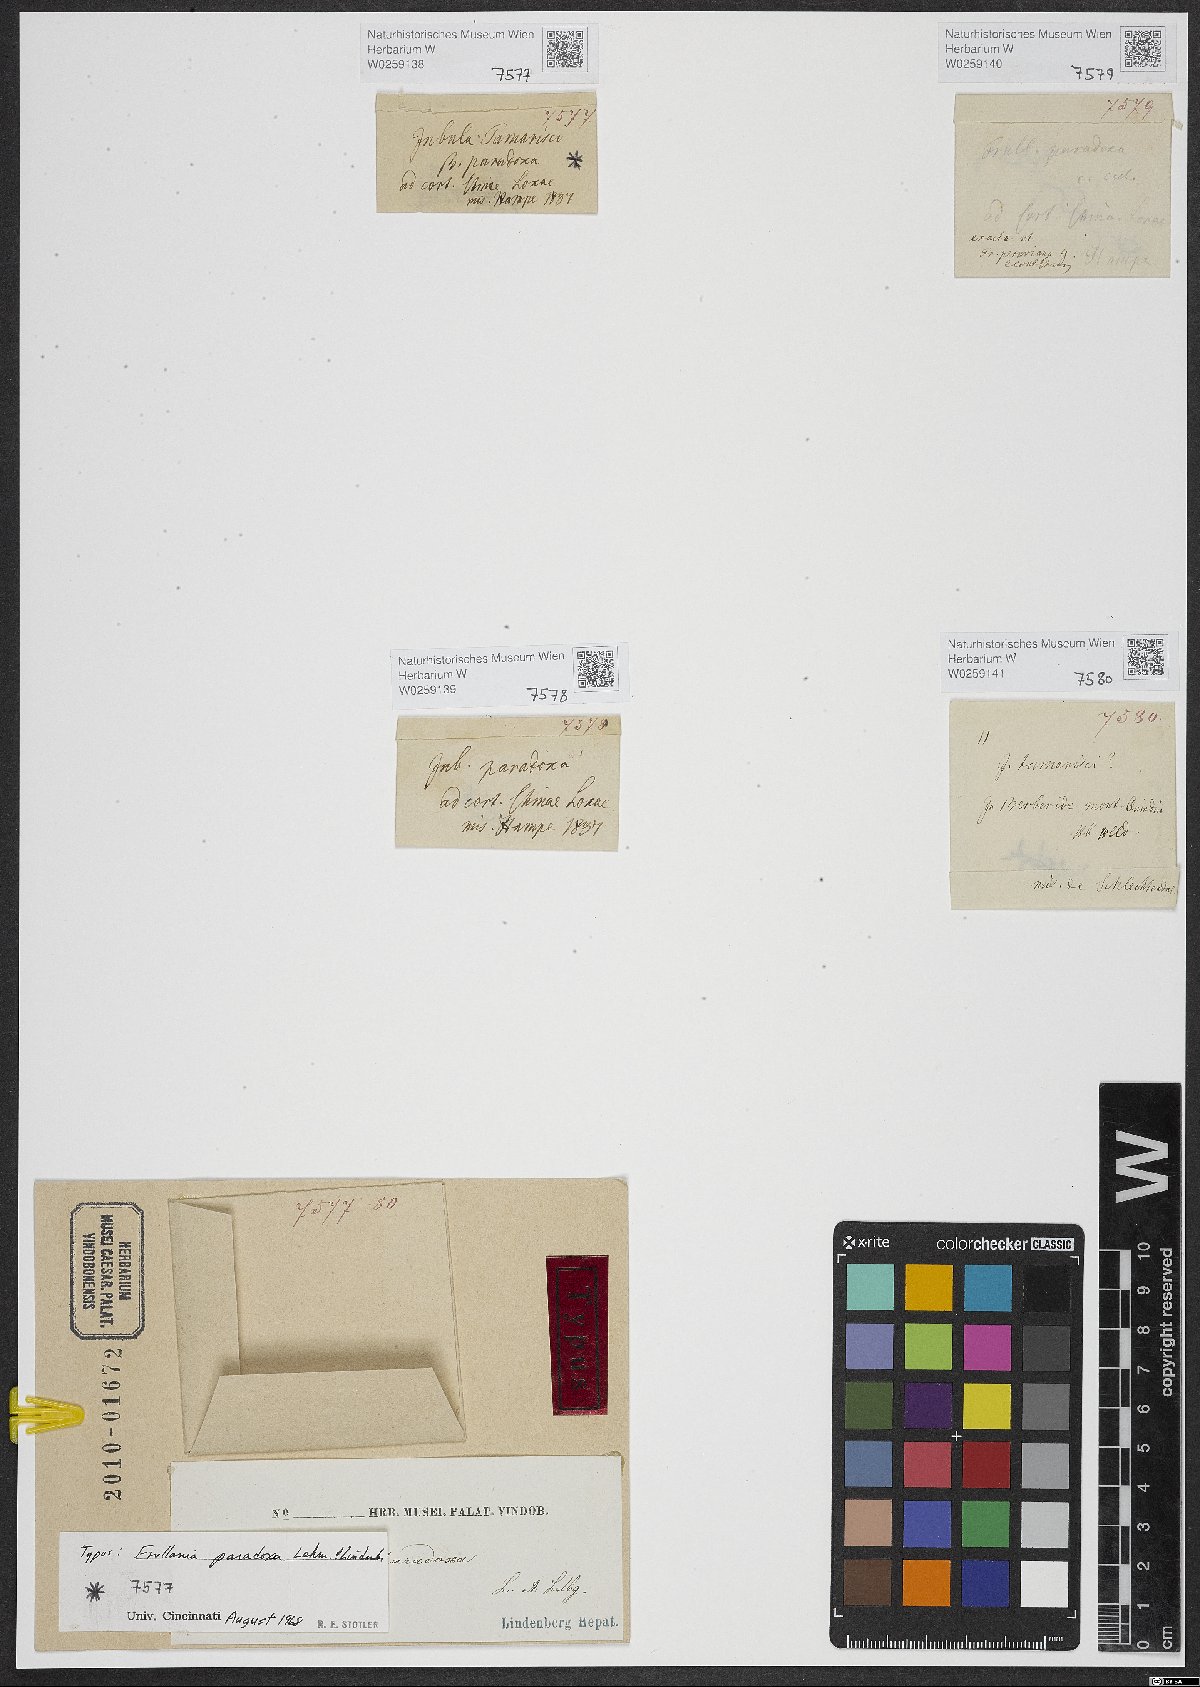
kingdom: Plantae
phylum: Marchantiophyta
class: Jungermanniopsida
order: Porellales
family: Frullaniaceae
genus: Frullania
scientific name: Frullania paradoxa
